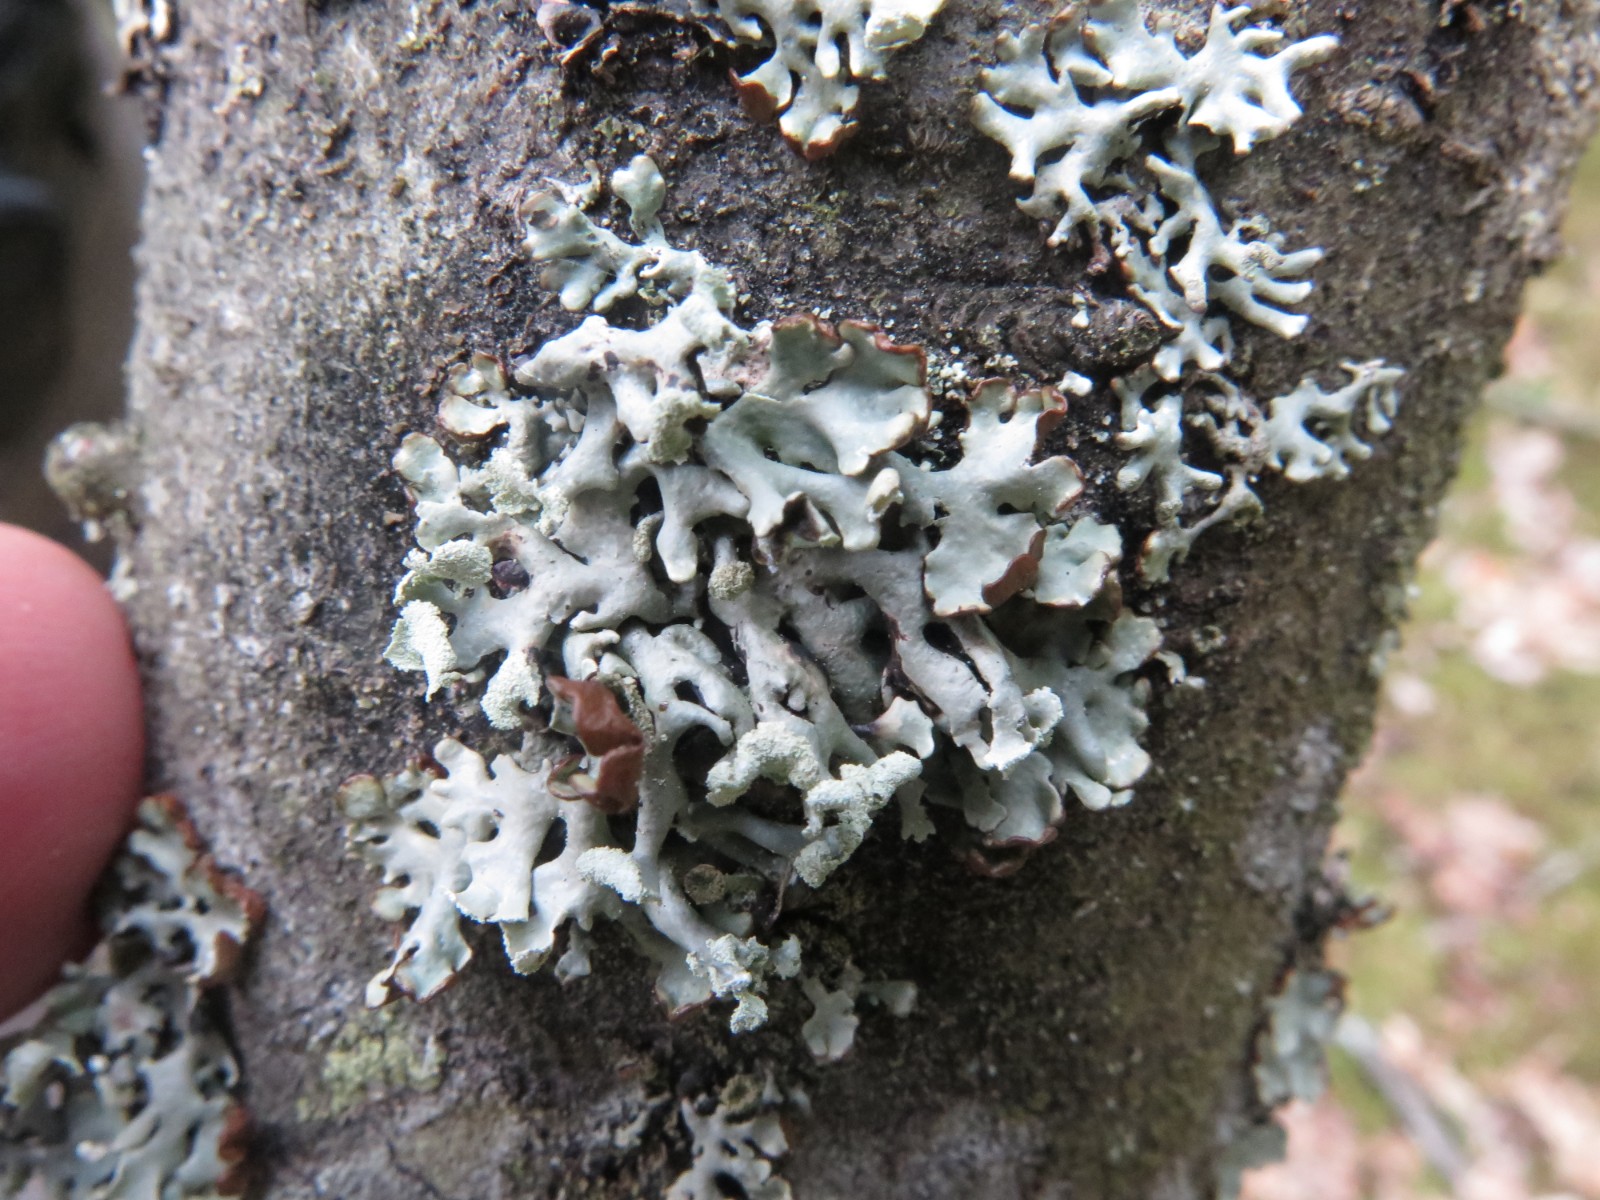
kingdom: Fungi
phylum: Ascomycota
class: Lecanoromycetes
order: Lecanorales
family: Parmeliaceae
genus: Hypogymnia
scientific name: Hypogymnia physodes
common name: almindelig kvistlav
